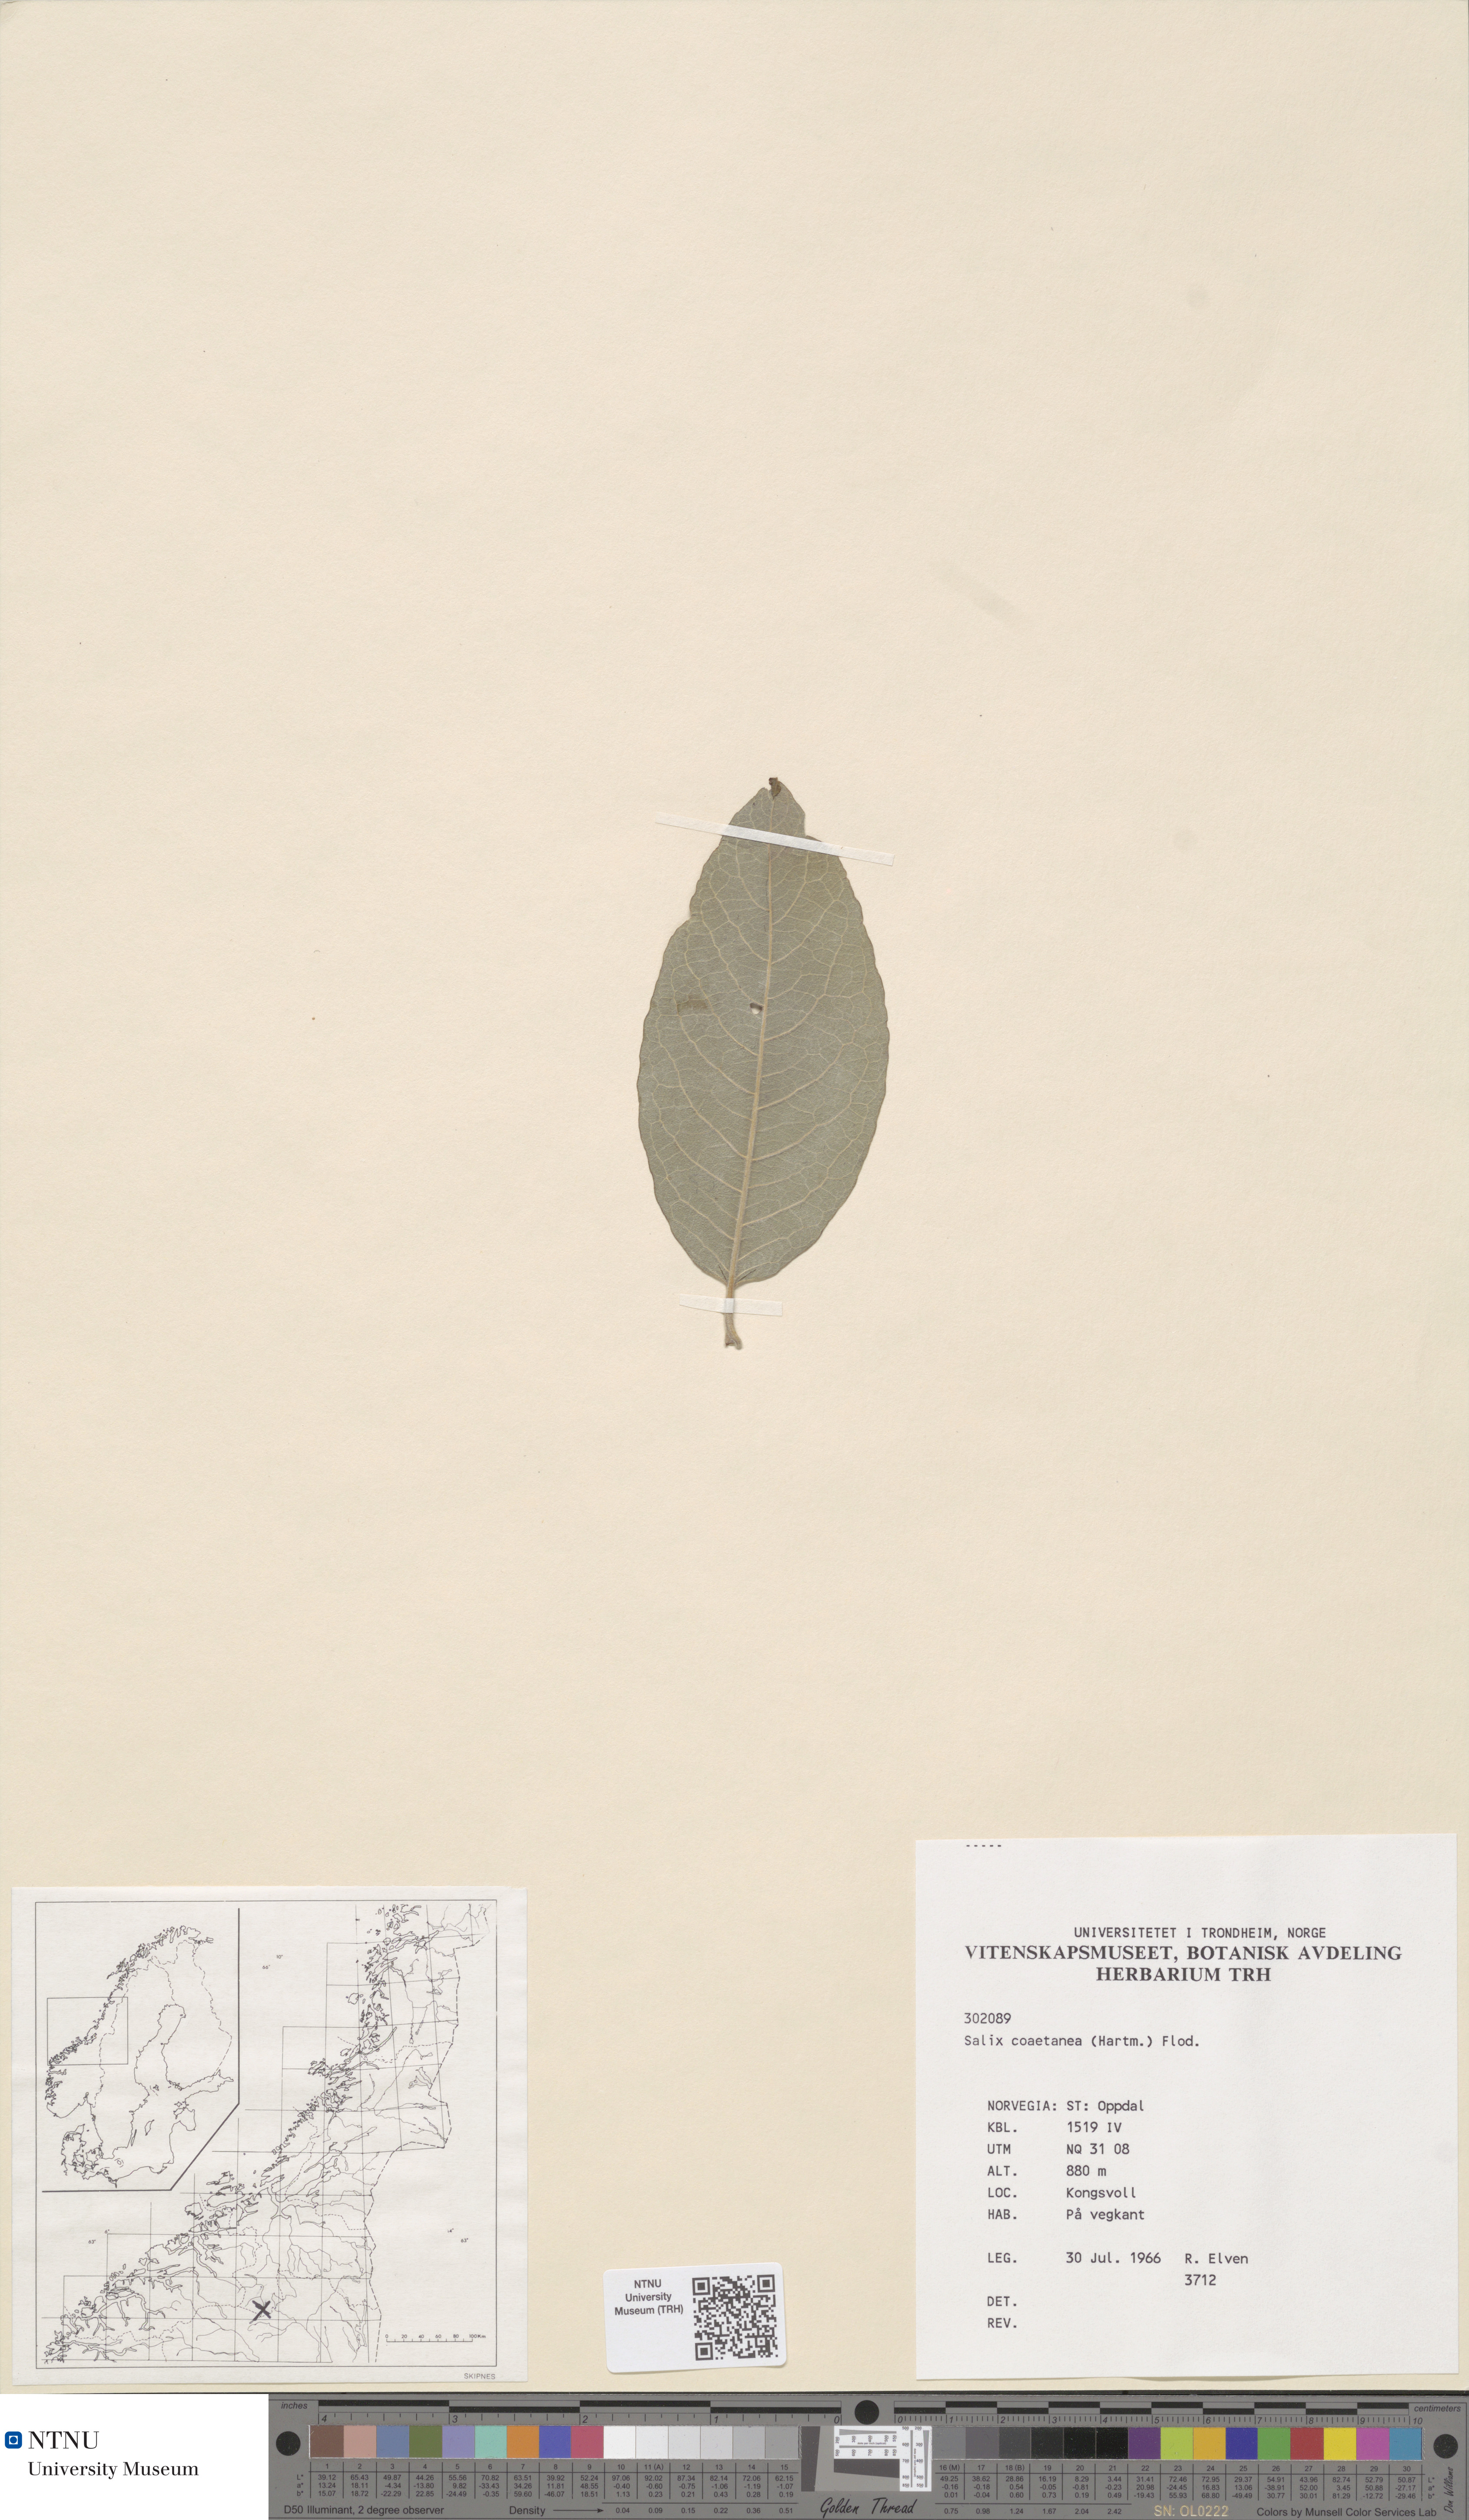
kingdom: Plantae
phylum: Tracheophyta
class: Magnoliopsida
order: Malpighiales
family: Salicaceae
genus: Salix
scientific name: Salix caprea
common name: Goat willow
